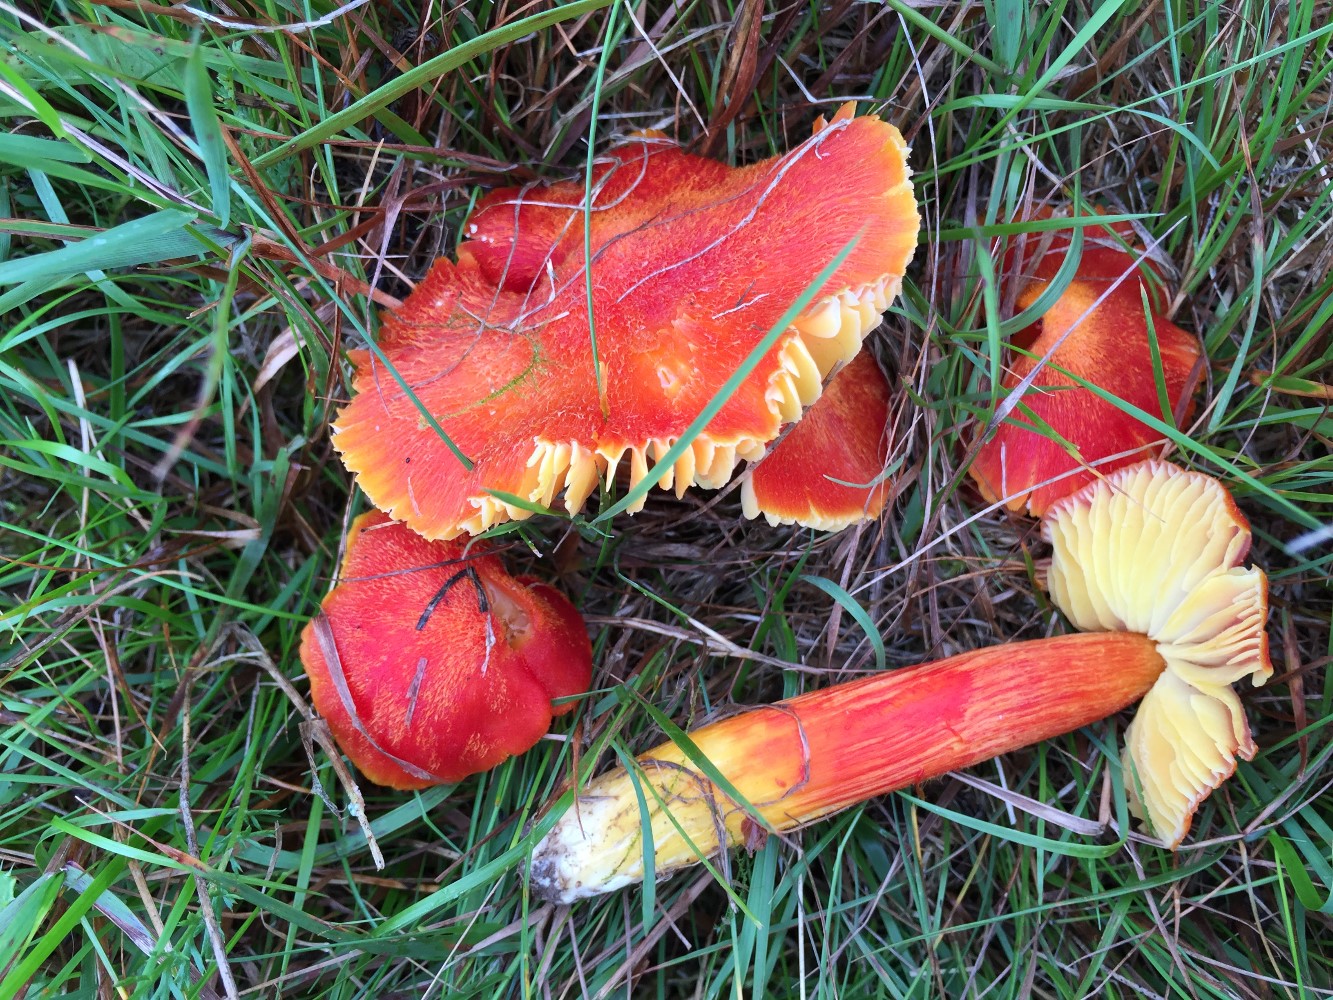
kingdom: Fungi
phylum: Basidiomycota
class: Agaricomycetes
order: Agaricales
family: Hygrophoraceae
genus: Hygrocybe
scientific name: Hygrocybe intermedia
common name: trævlet vokshat
